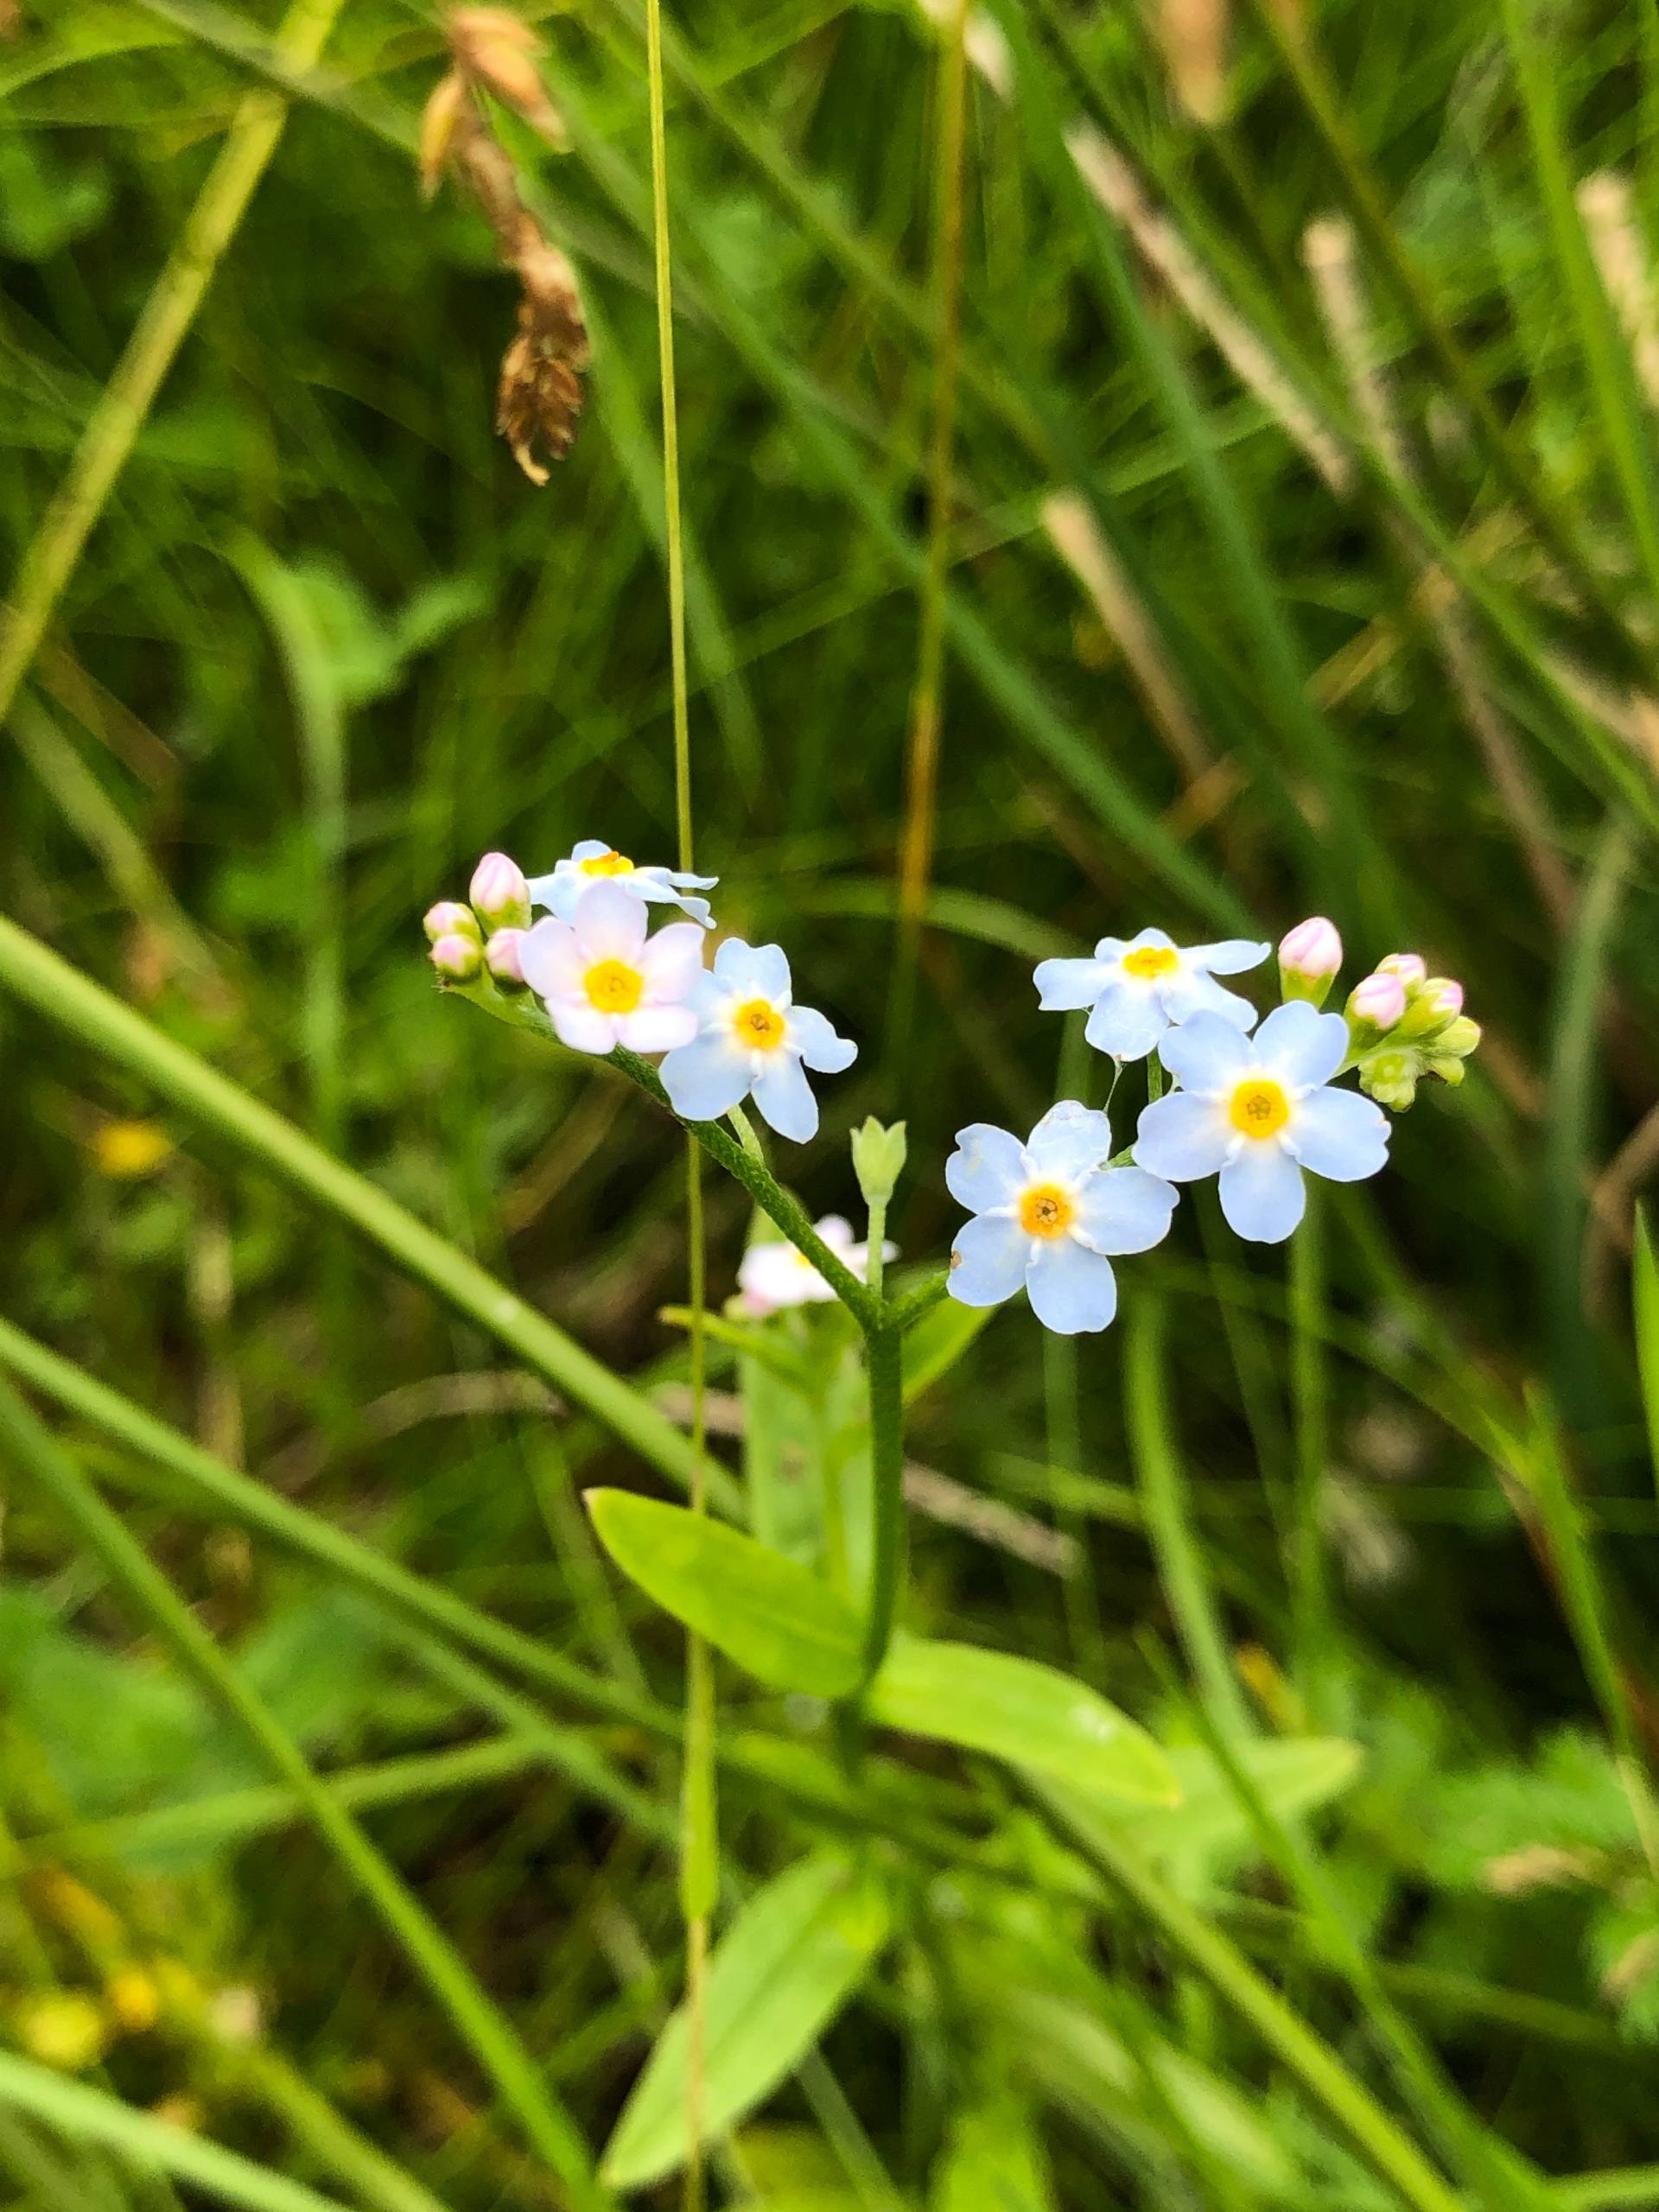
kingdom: Plantae
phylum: Tracheophyta
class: Magnoliopsida
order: Boraginales
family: Boraginaceae
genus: Myosotis
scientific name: Myosotis scorpioides
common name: Eng-forglemmigej
